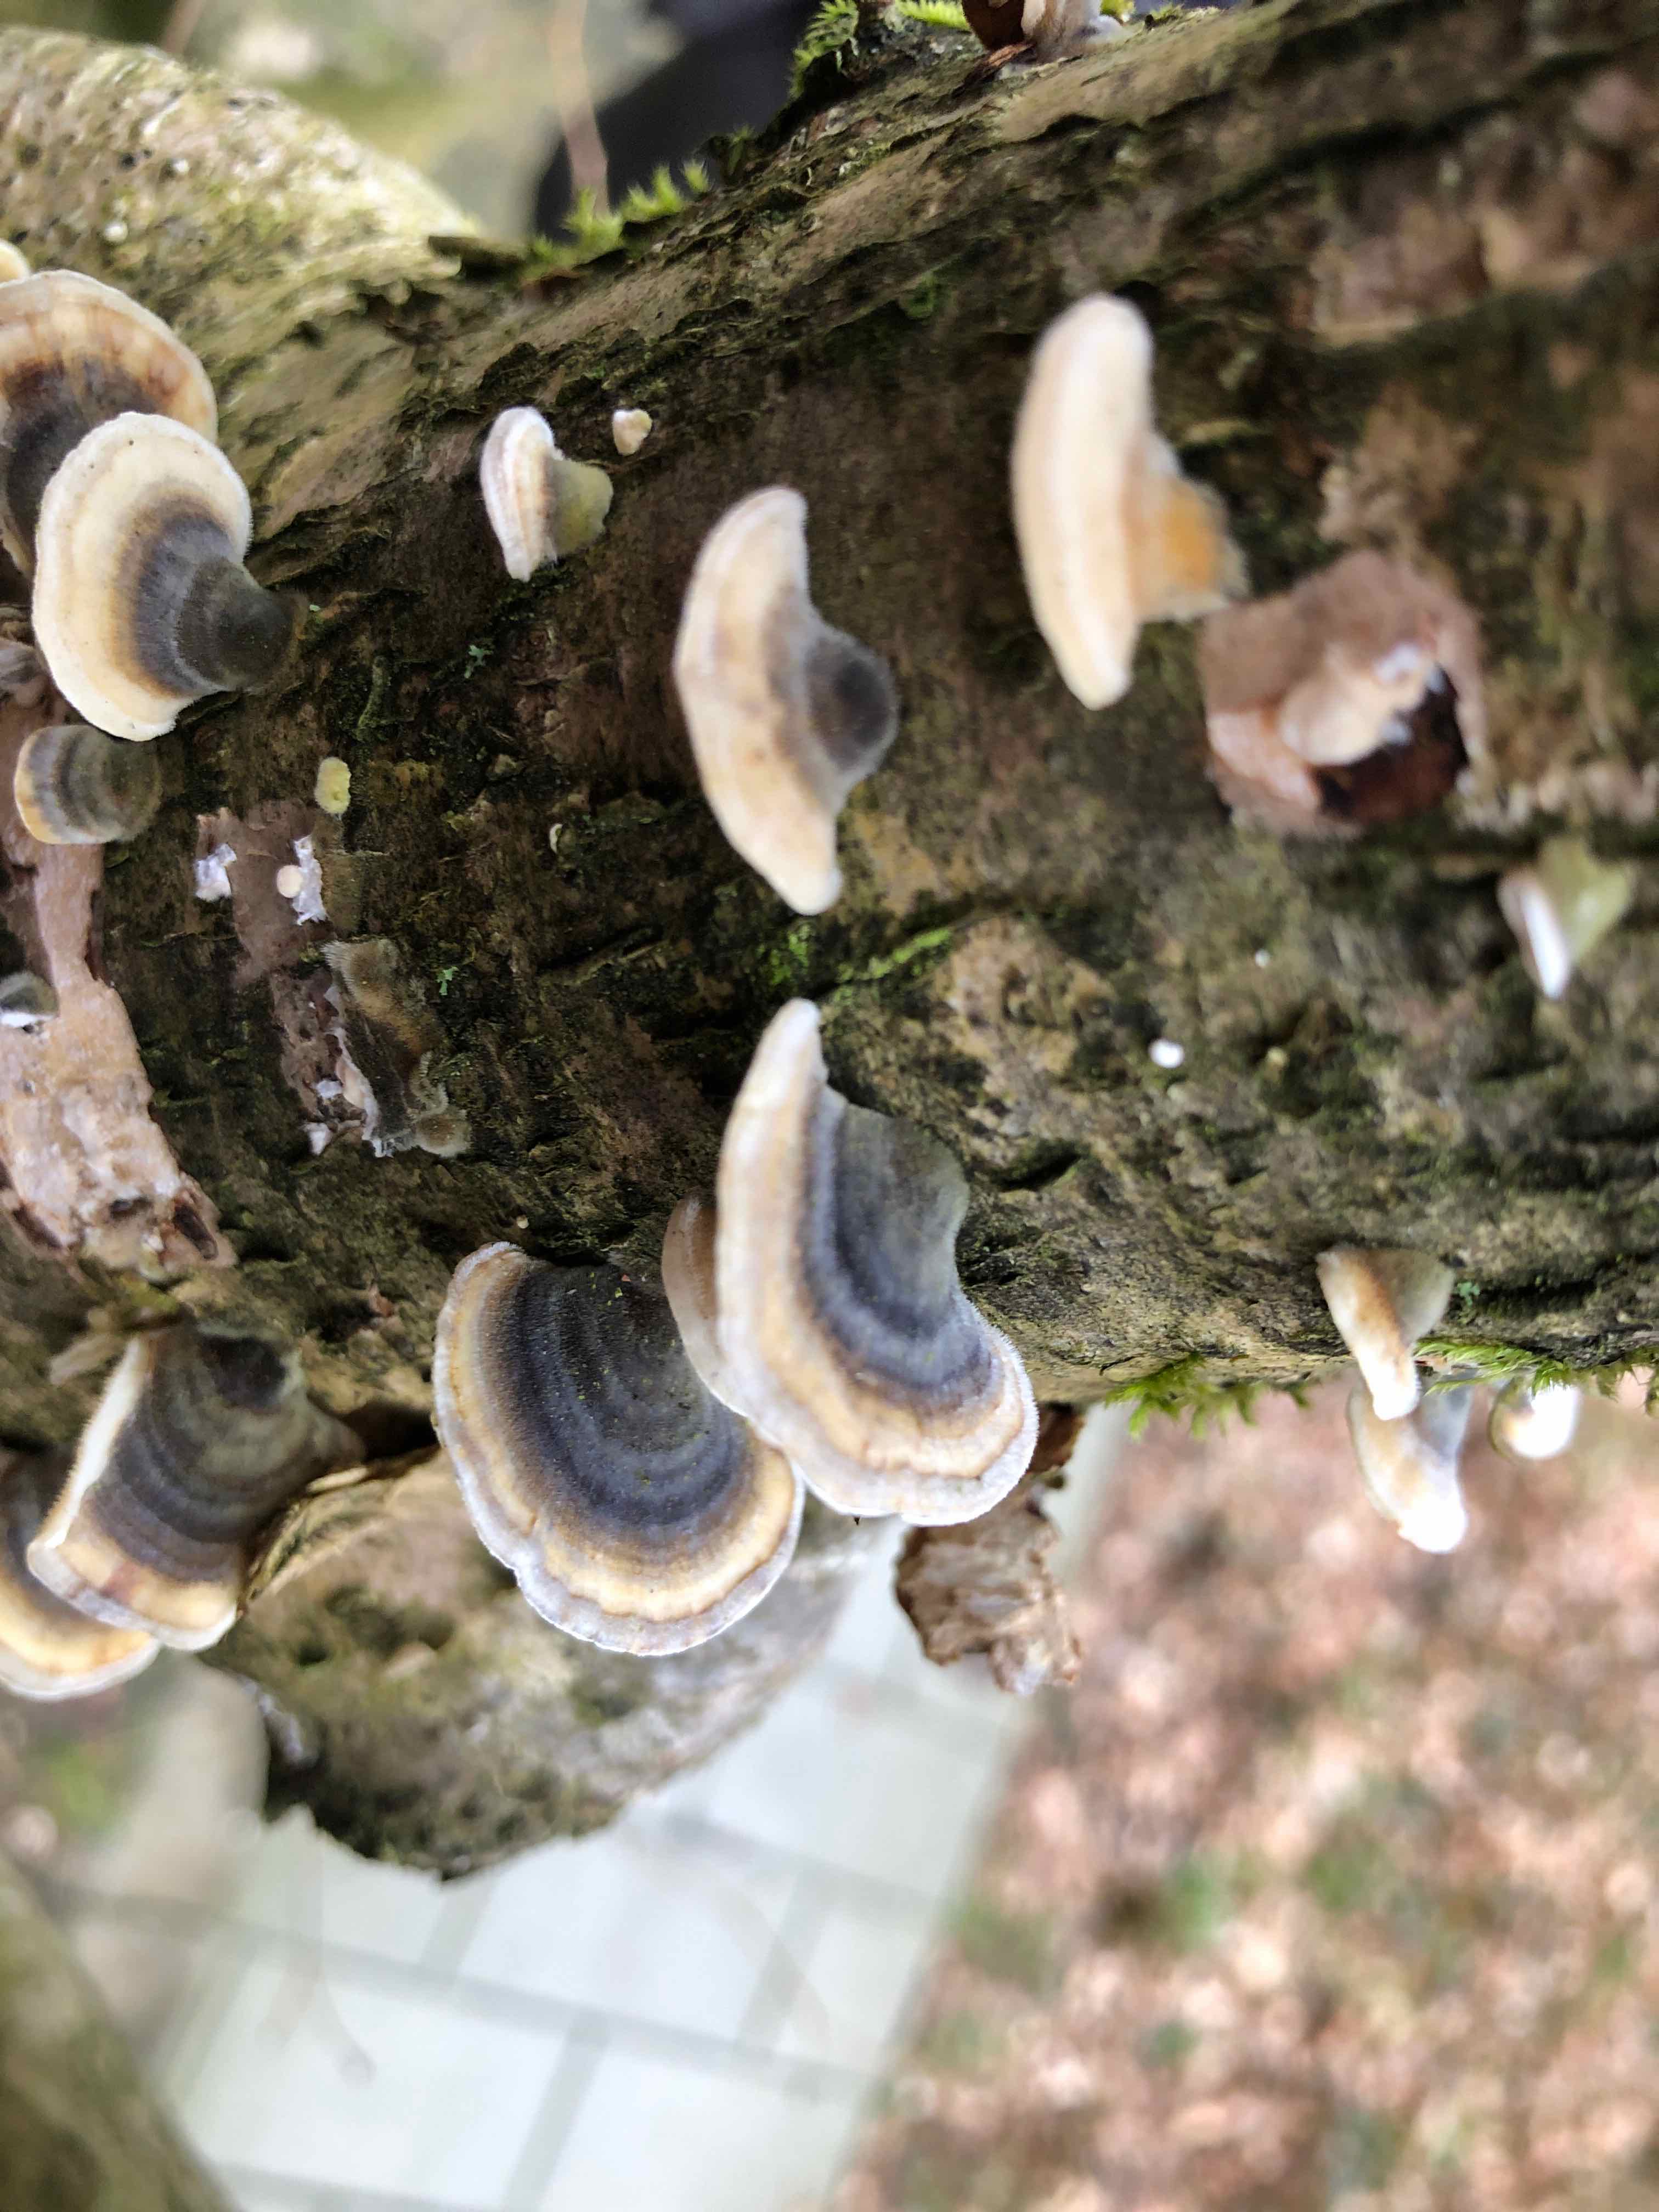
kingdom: Fungi
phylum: Basidiomycota
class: Agaricomycetes
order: Polyporales
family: Polyporaceae
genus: Trametes
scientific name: Trametes versicolor
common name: broget læderporesvamp
